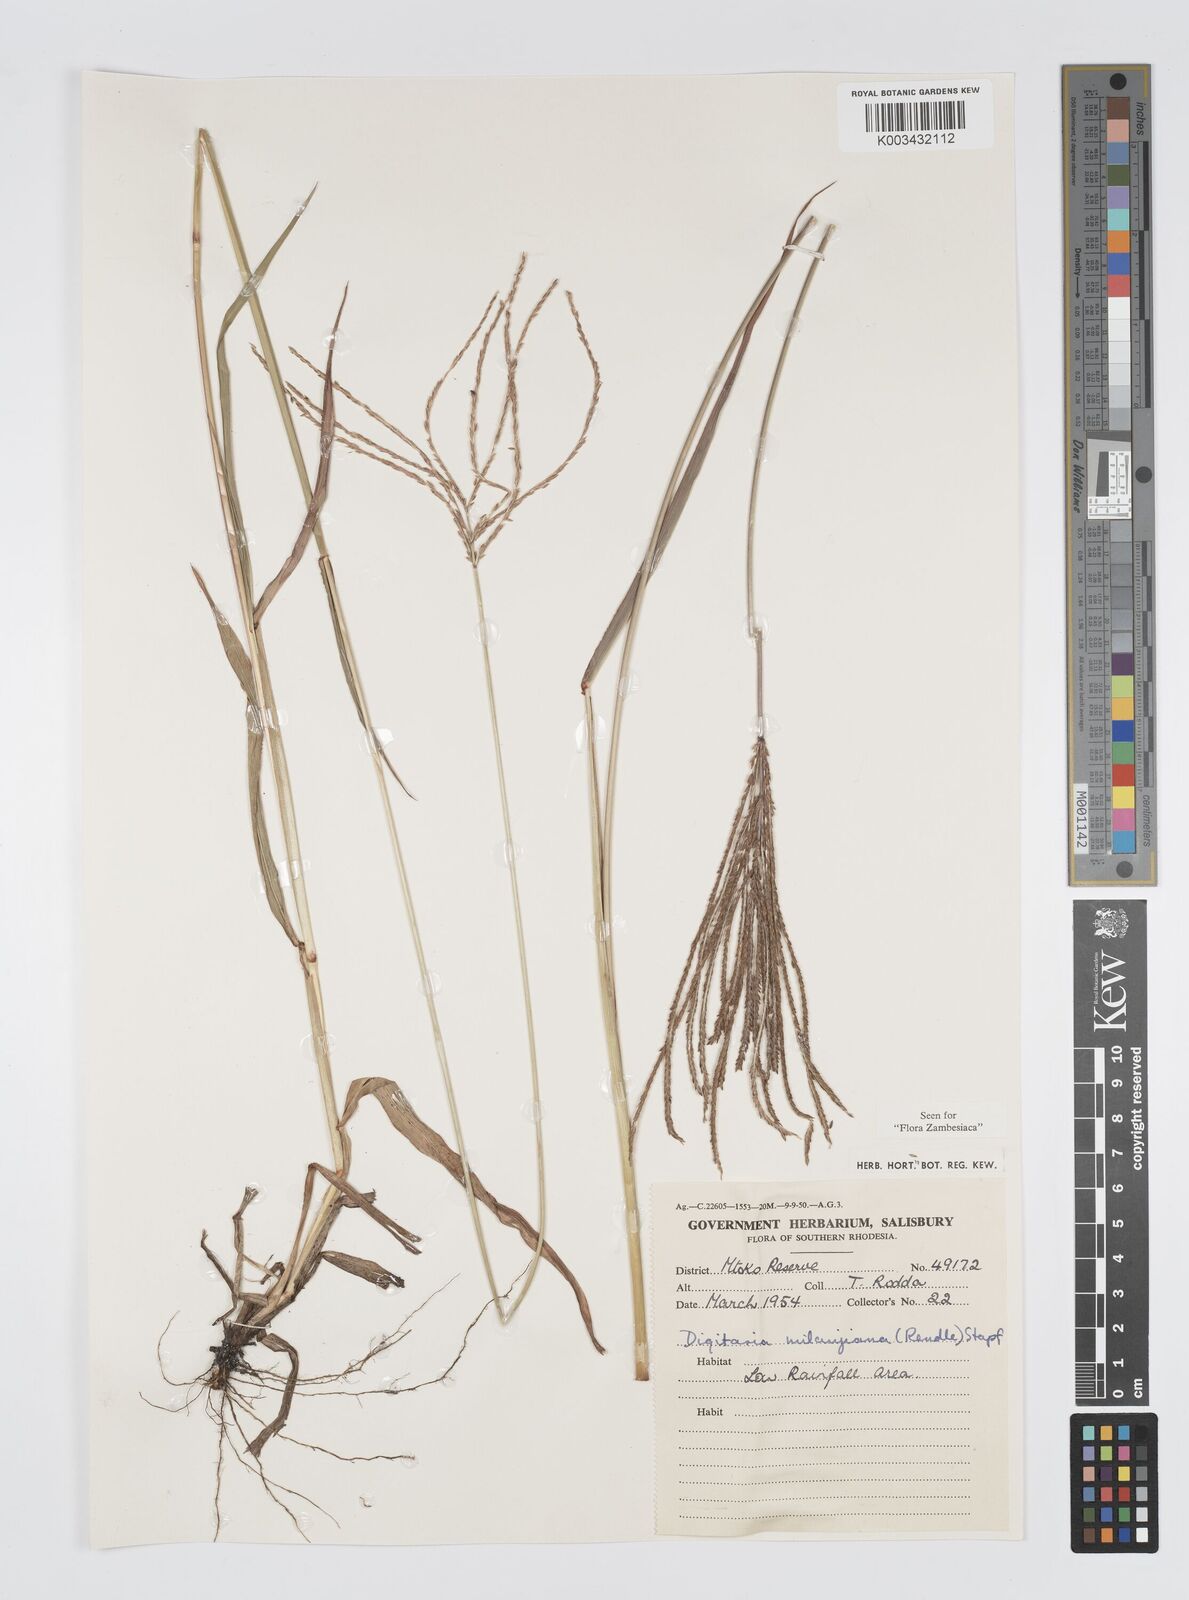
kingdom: Plantae
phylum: Tracheophyta
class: Liliopsida
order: Poales
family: Poaceae
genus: Digitaria
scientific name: Digitaria milanjiana
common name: Madagascar crabgrass
